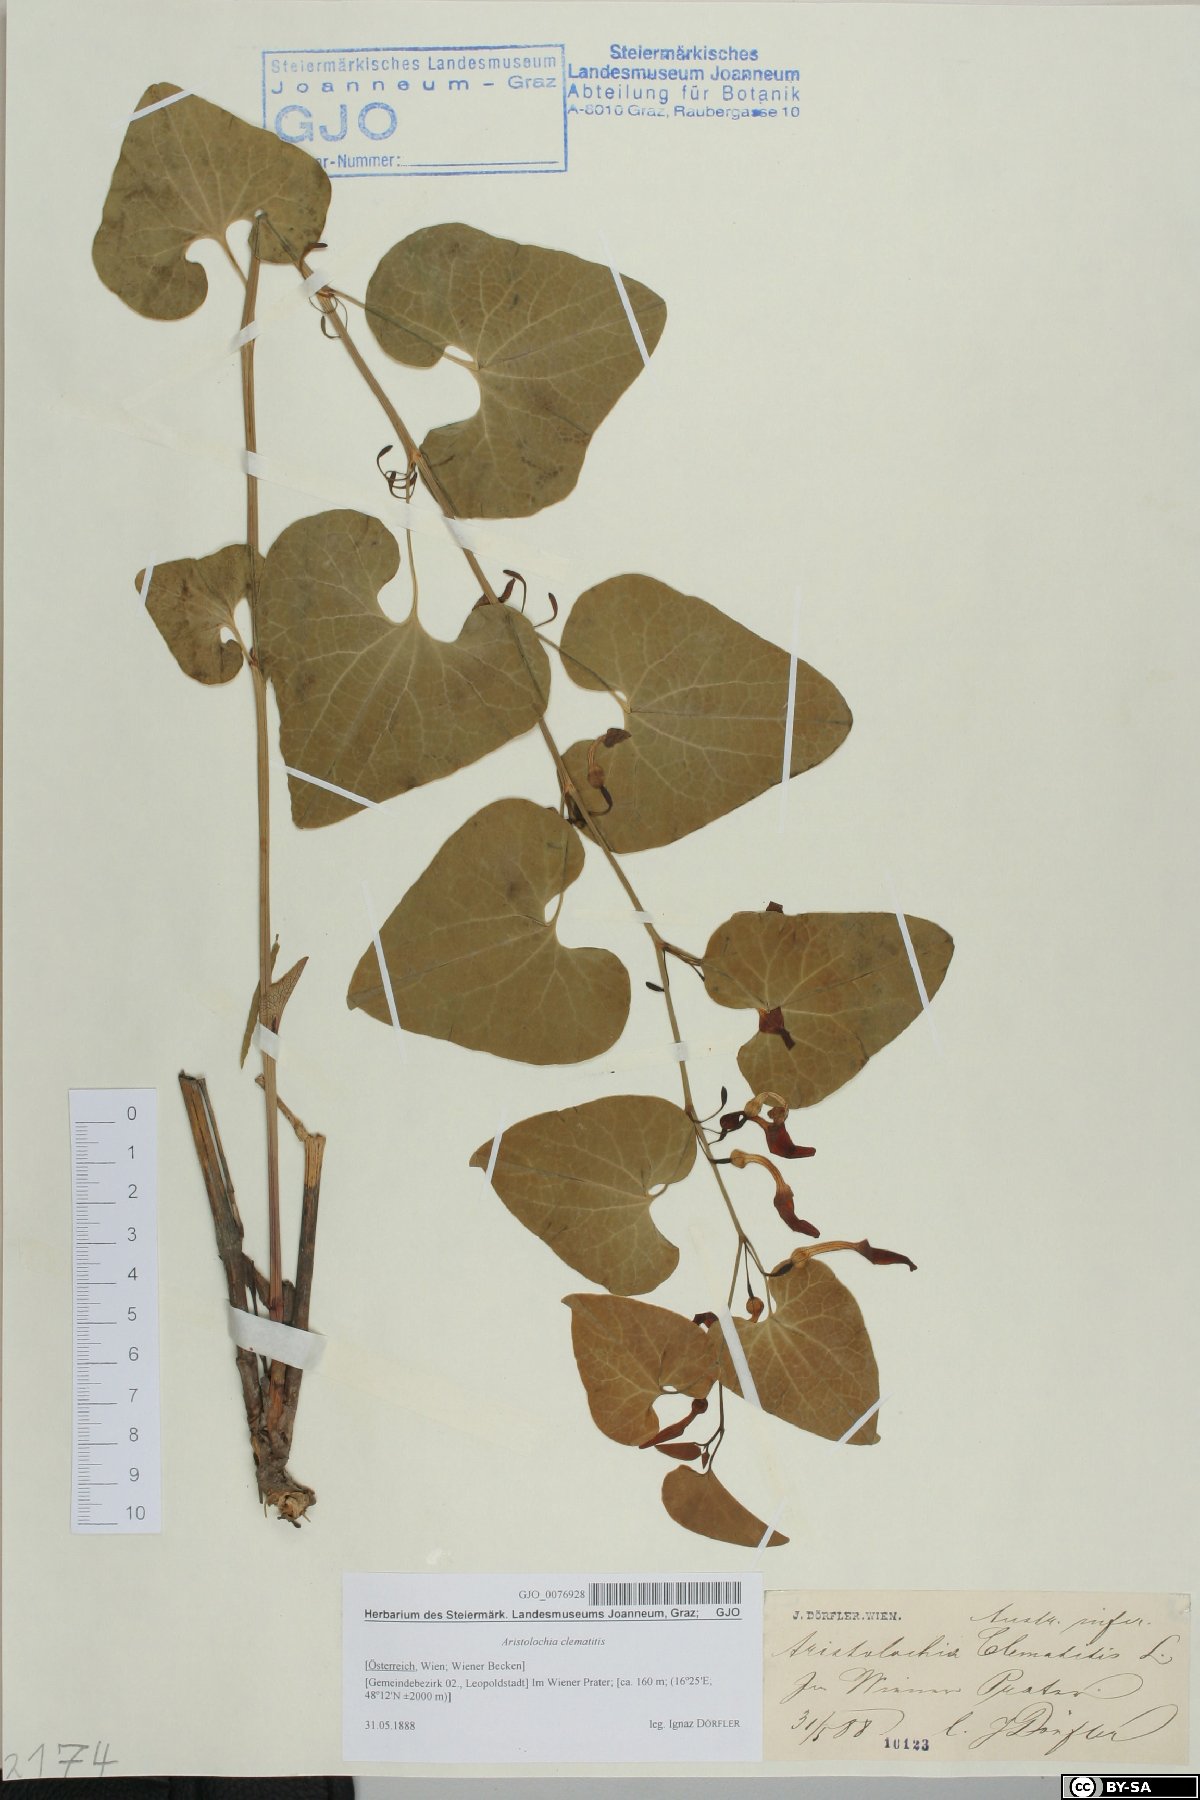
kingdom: Plantae
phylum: Tracheophyta
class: Magnoliopsida
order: Piperales
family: Aristolochiaceae
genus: Aristolochia
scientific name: Aristolochia clematitis
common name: Birthwort
